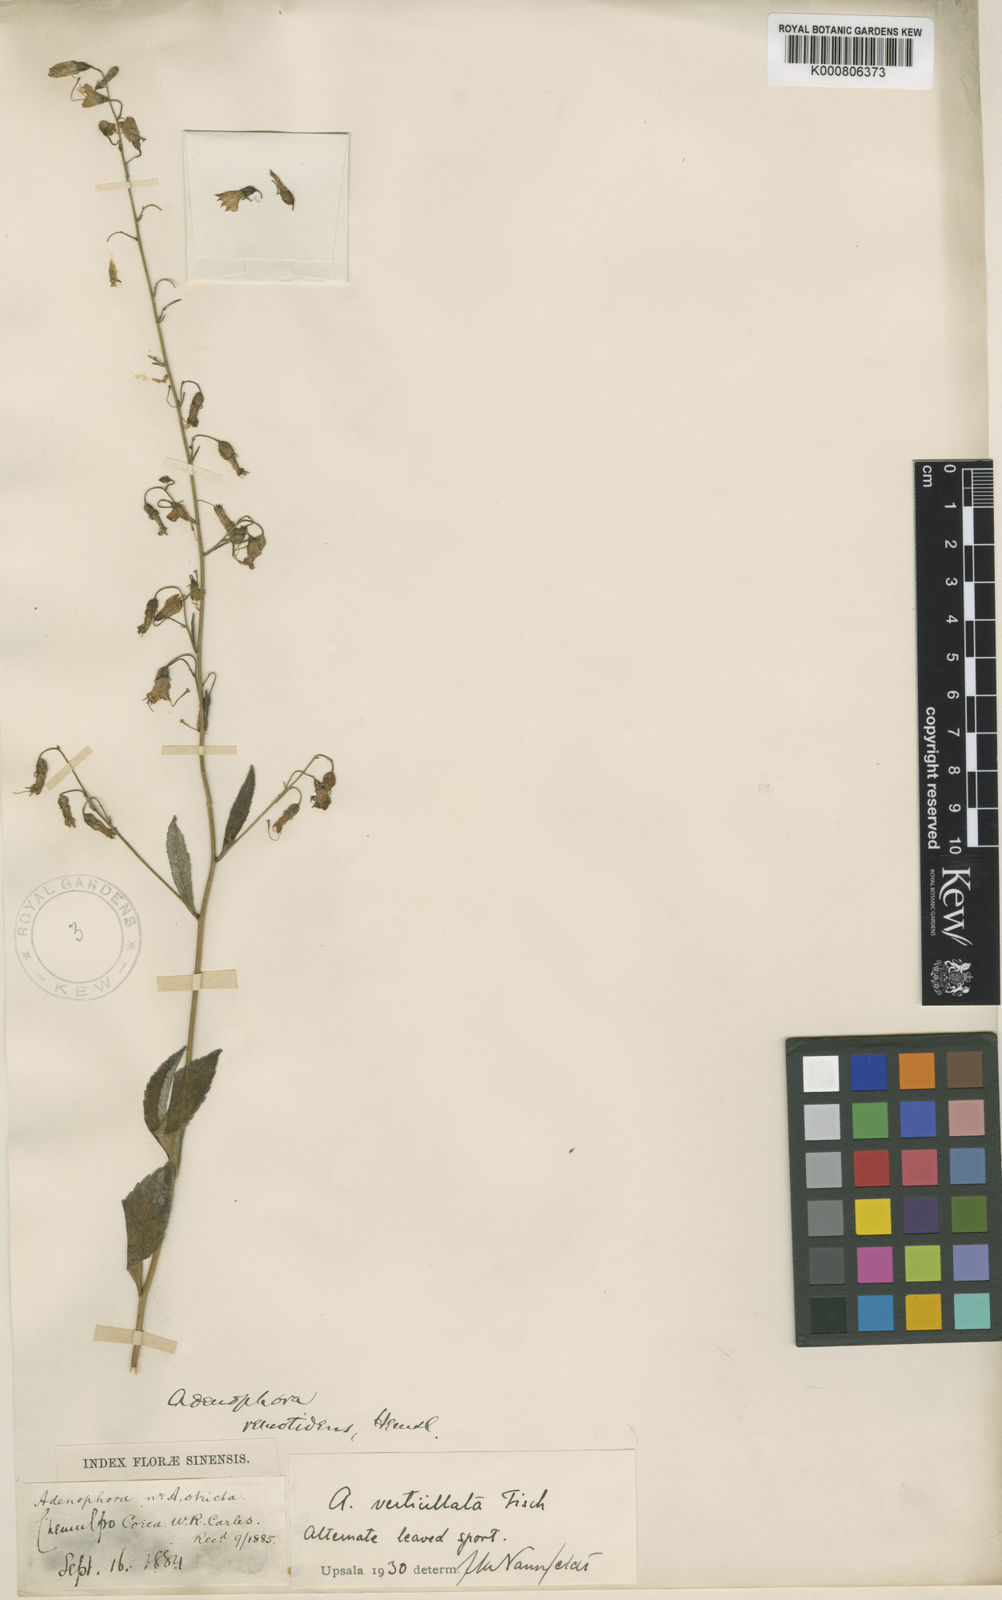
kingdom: Plantae
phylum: Tracheophyta
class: Magnoliopsida
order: Asterales
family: Campanulaceae
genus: Adenophora
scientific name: Adenophora remotidens
